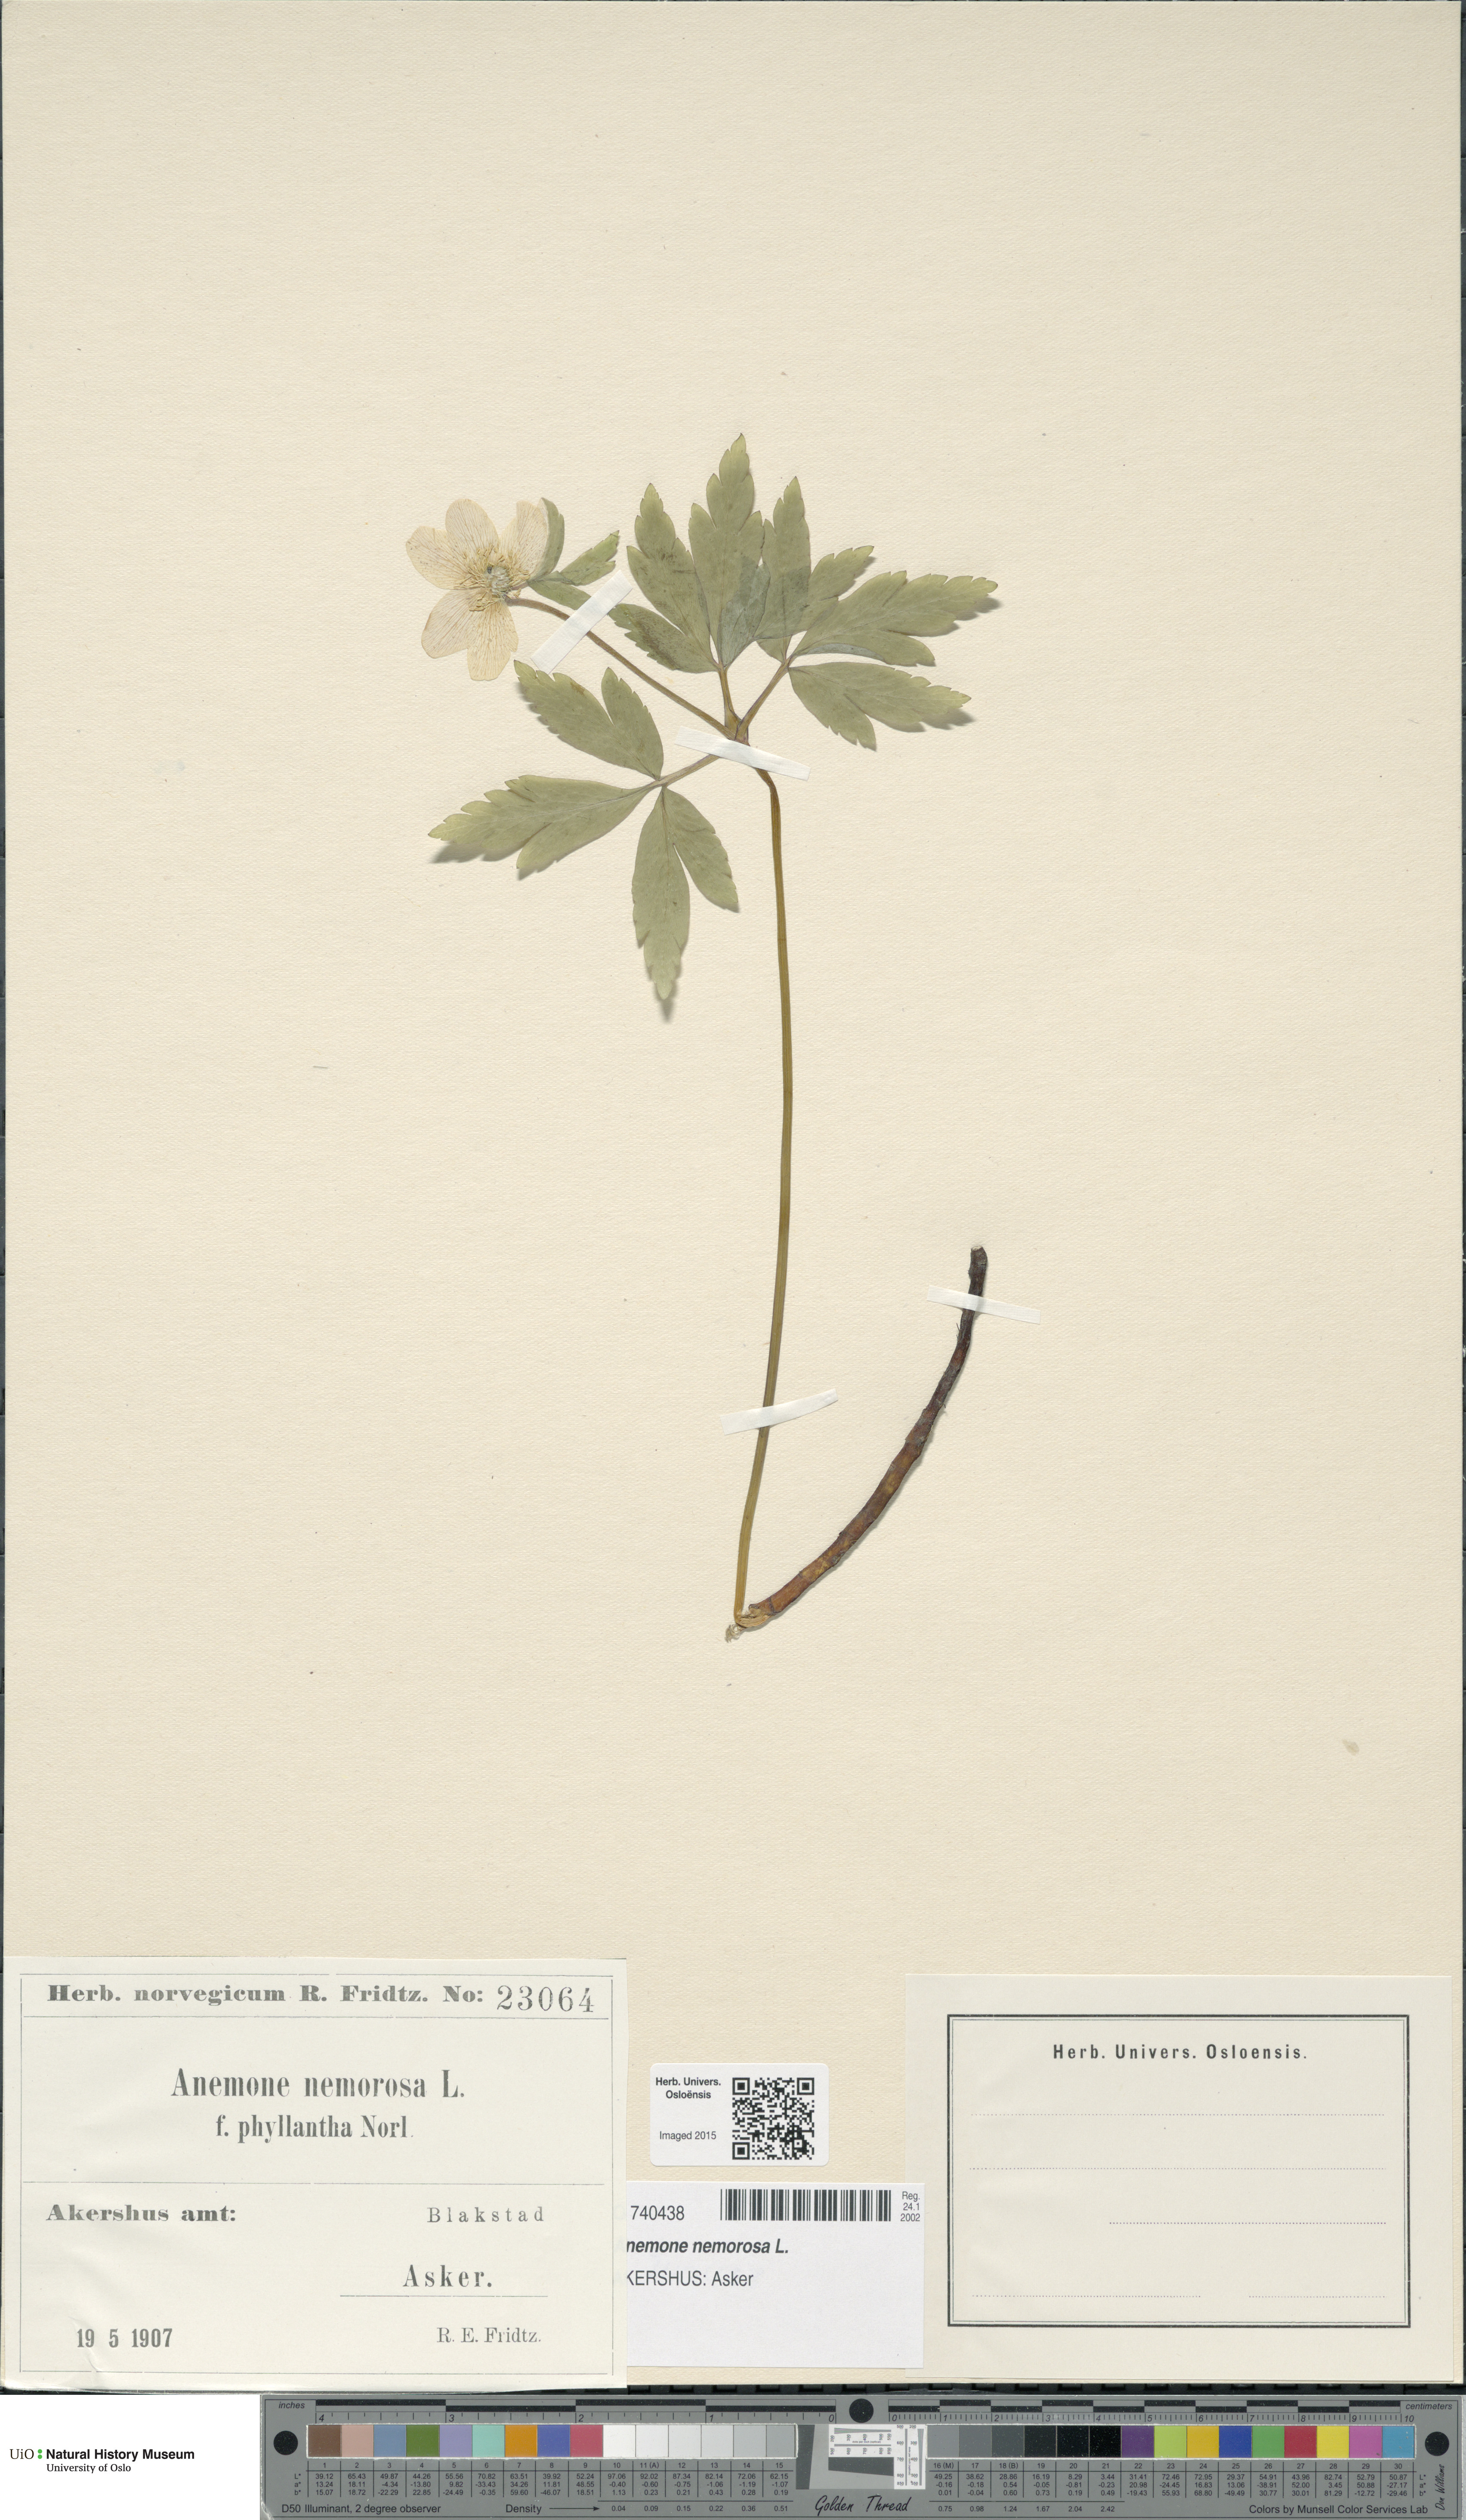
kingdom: Plantae
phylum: Tracheophyta
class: Magnoliopsida
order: Ranunculales
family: Ranunculaceae
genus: Anemone
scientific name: Anemone nemorosa
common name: Wood anemone
